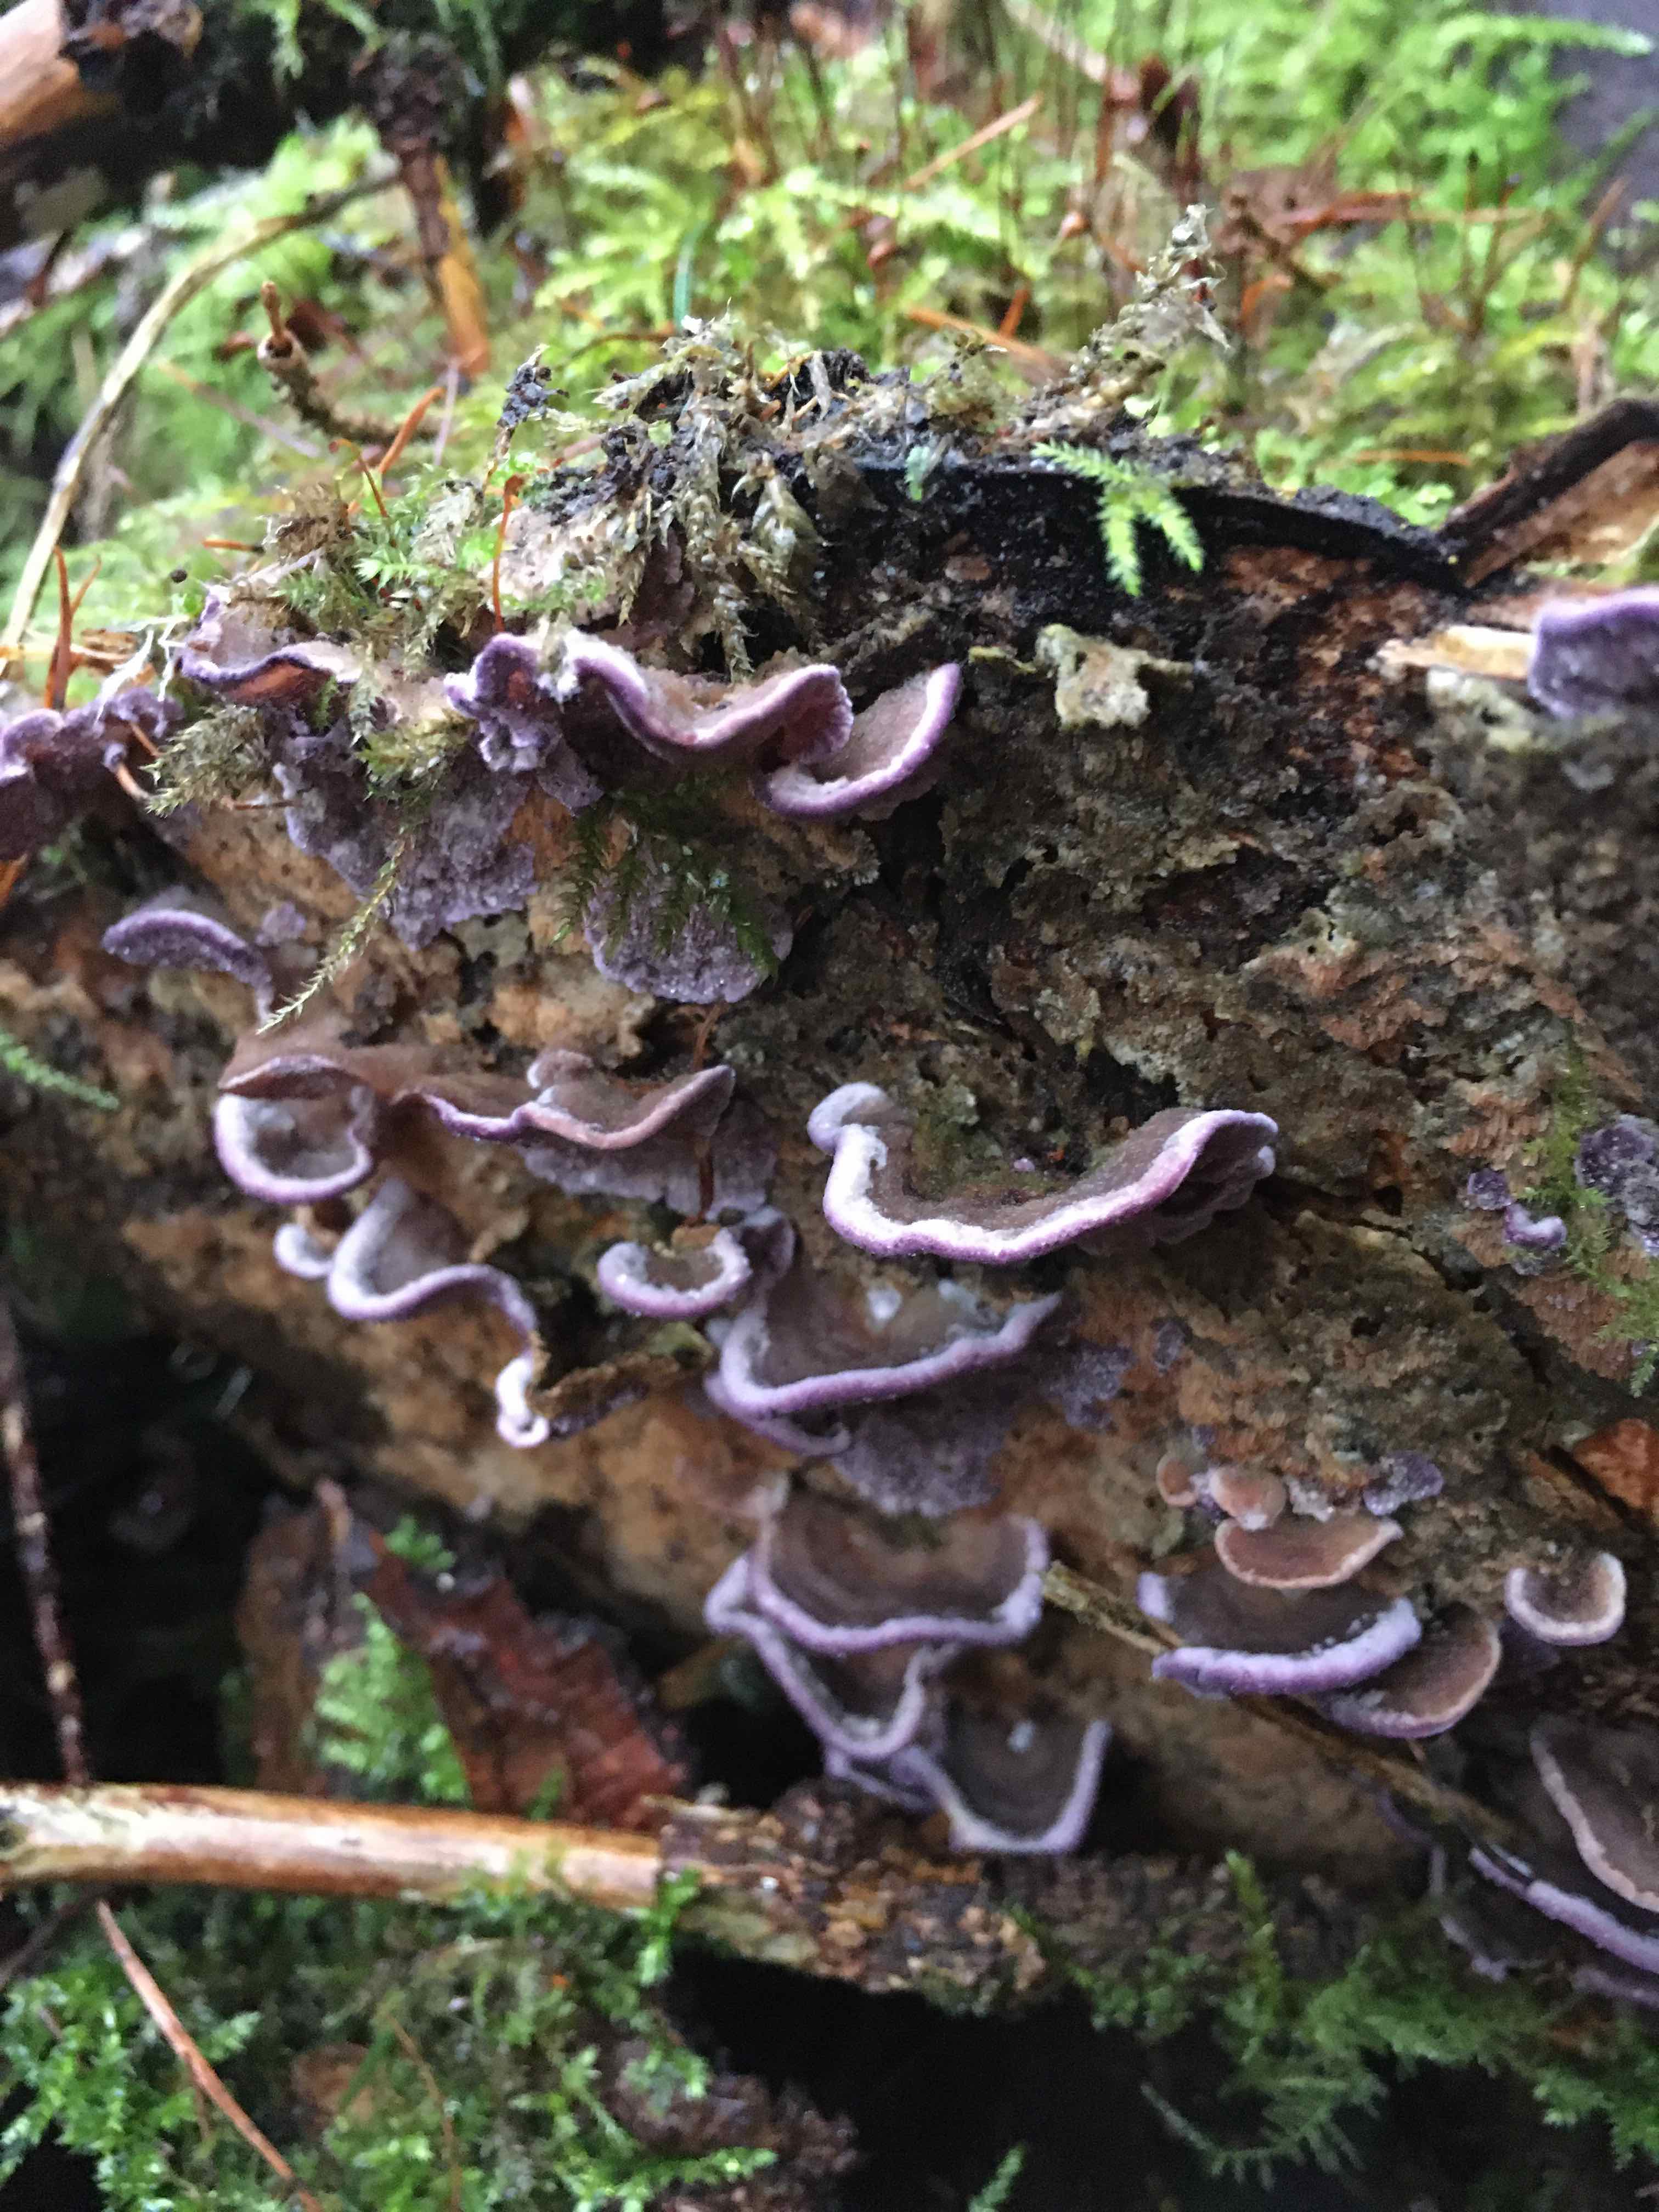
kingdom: Fungi
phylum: Basidiomycota
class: Agaricomycetes
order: Hymenochaetales
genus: Trichaptum
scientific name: Trichaptum abietinum
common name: almindelig violporesvamp
